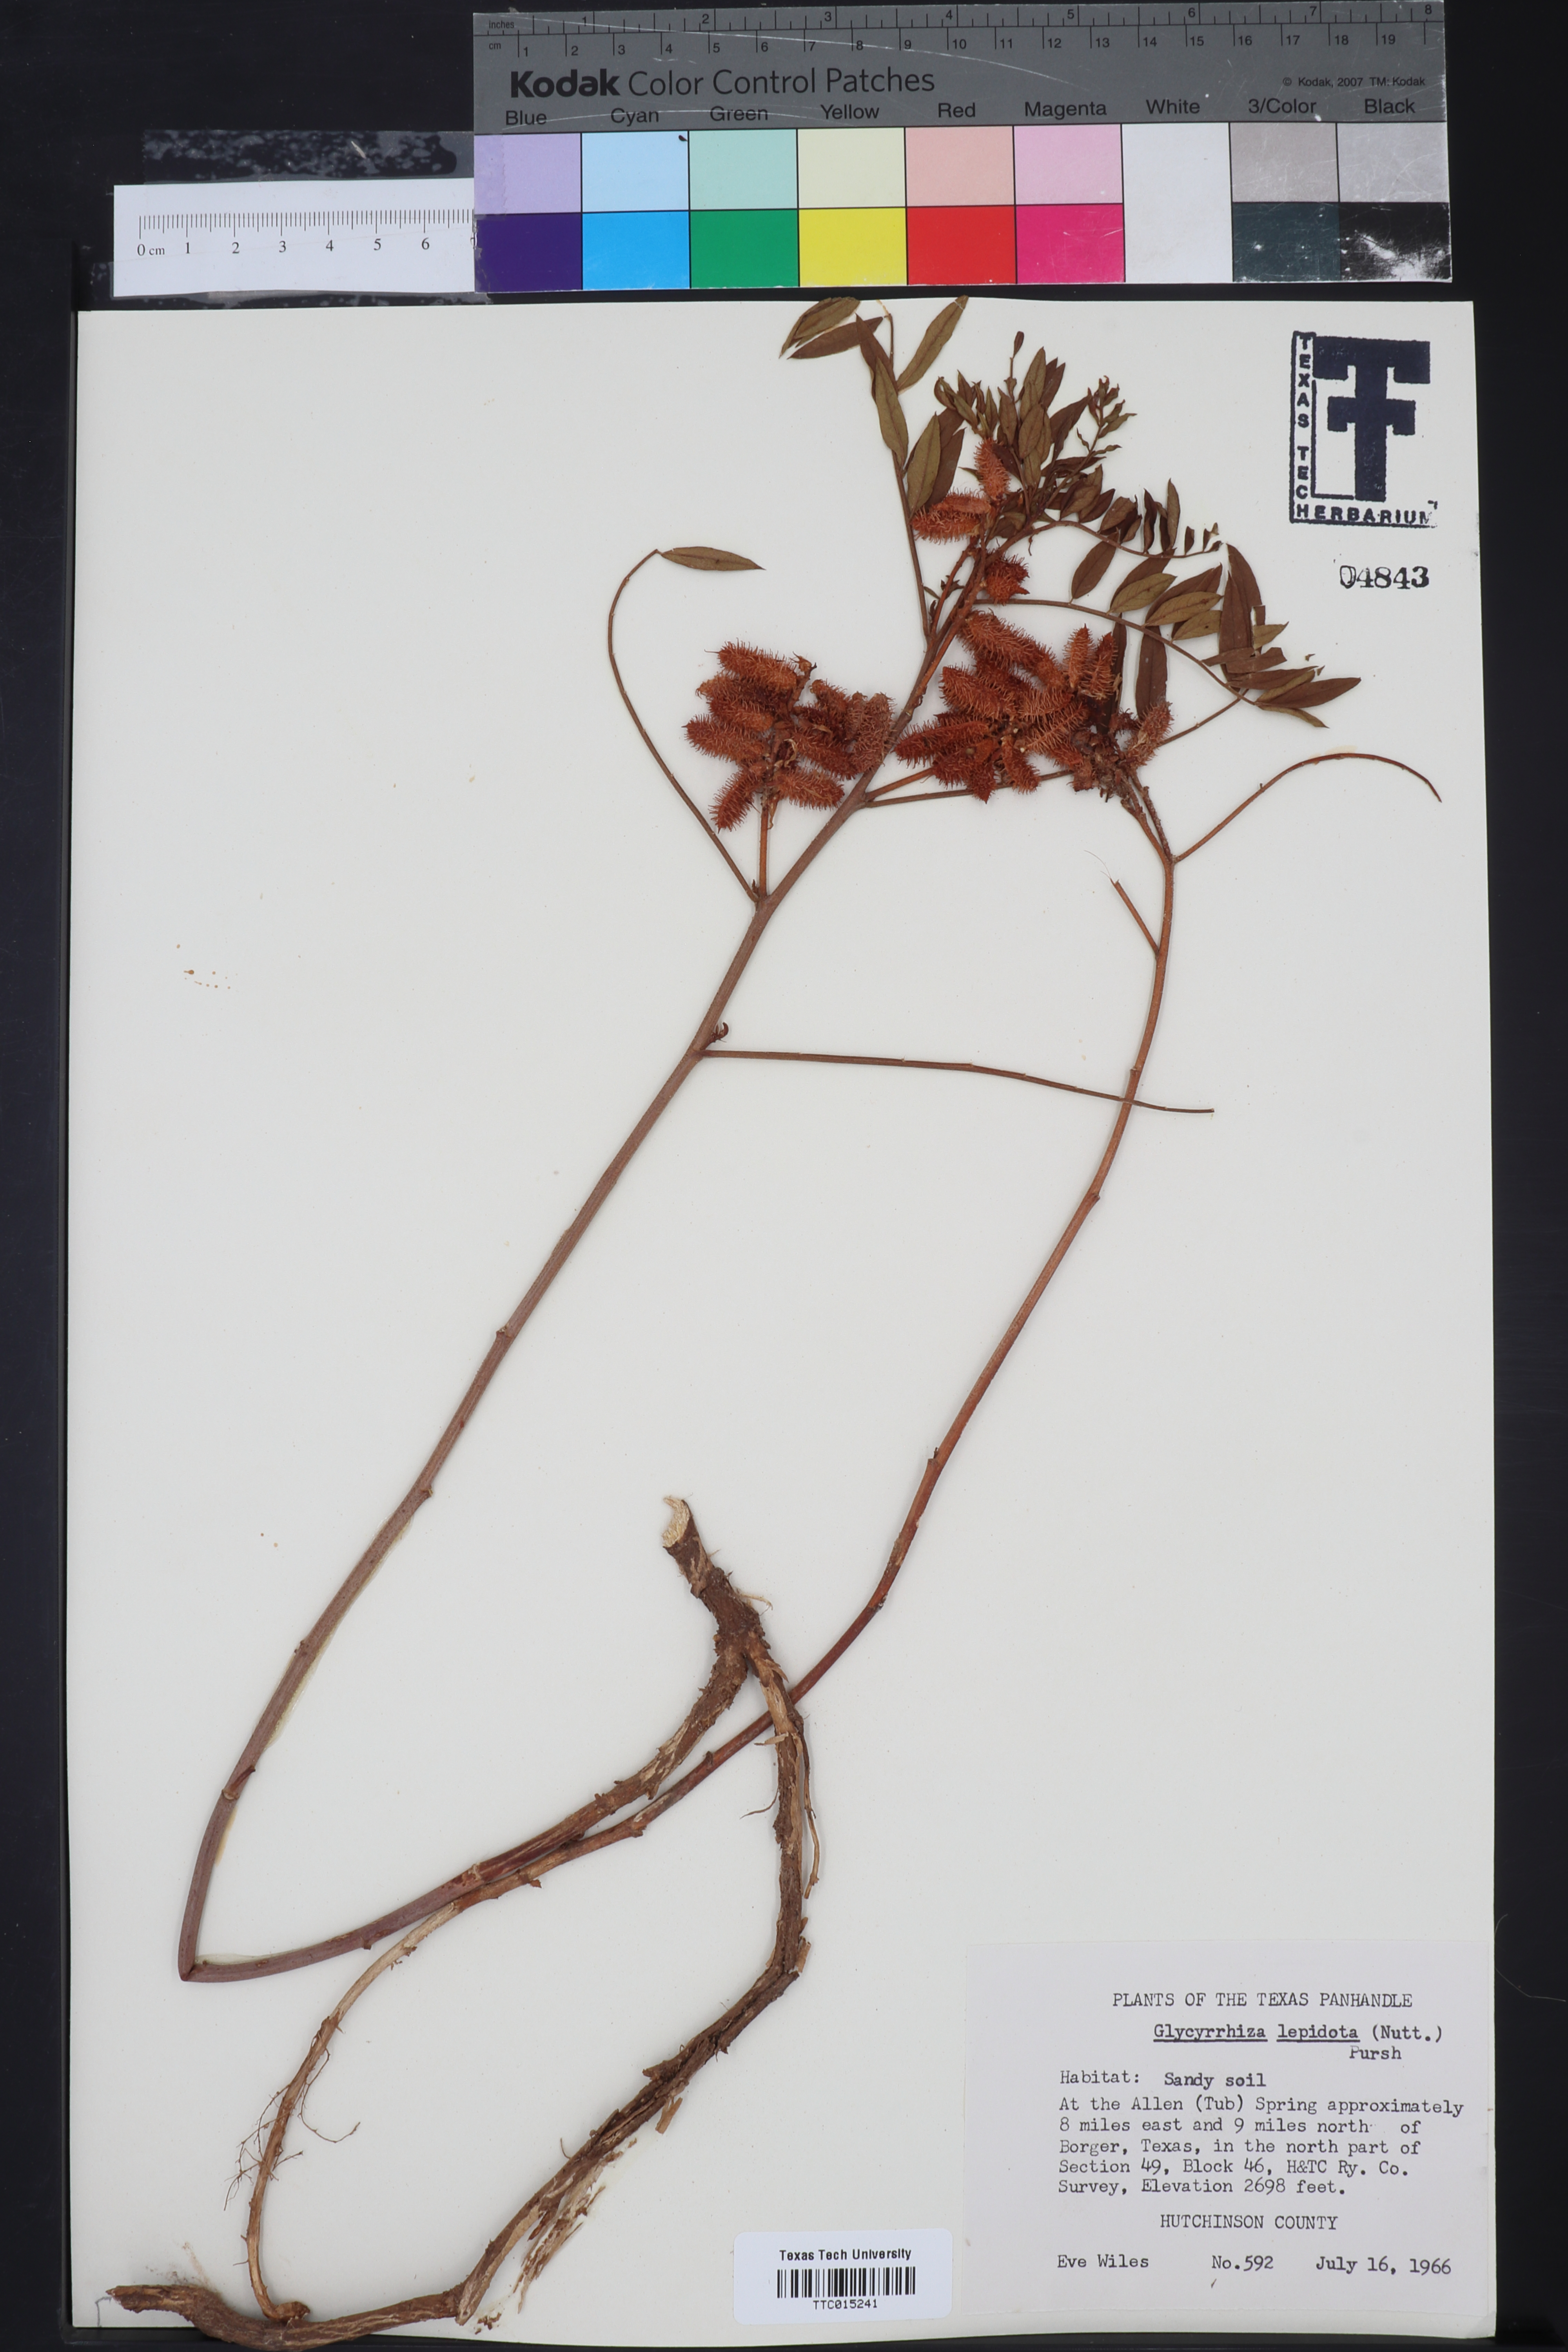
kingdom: Plantae
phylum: Tracheophyta
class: Magnoliopsida
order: Fabales
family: Fabaceae
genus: Glycyrrhiza
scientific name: Glycyrrhiza lepidota
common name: American liquorice
